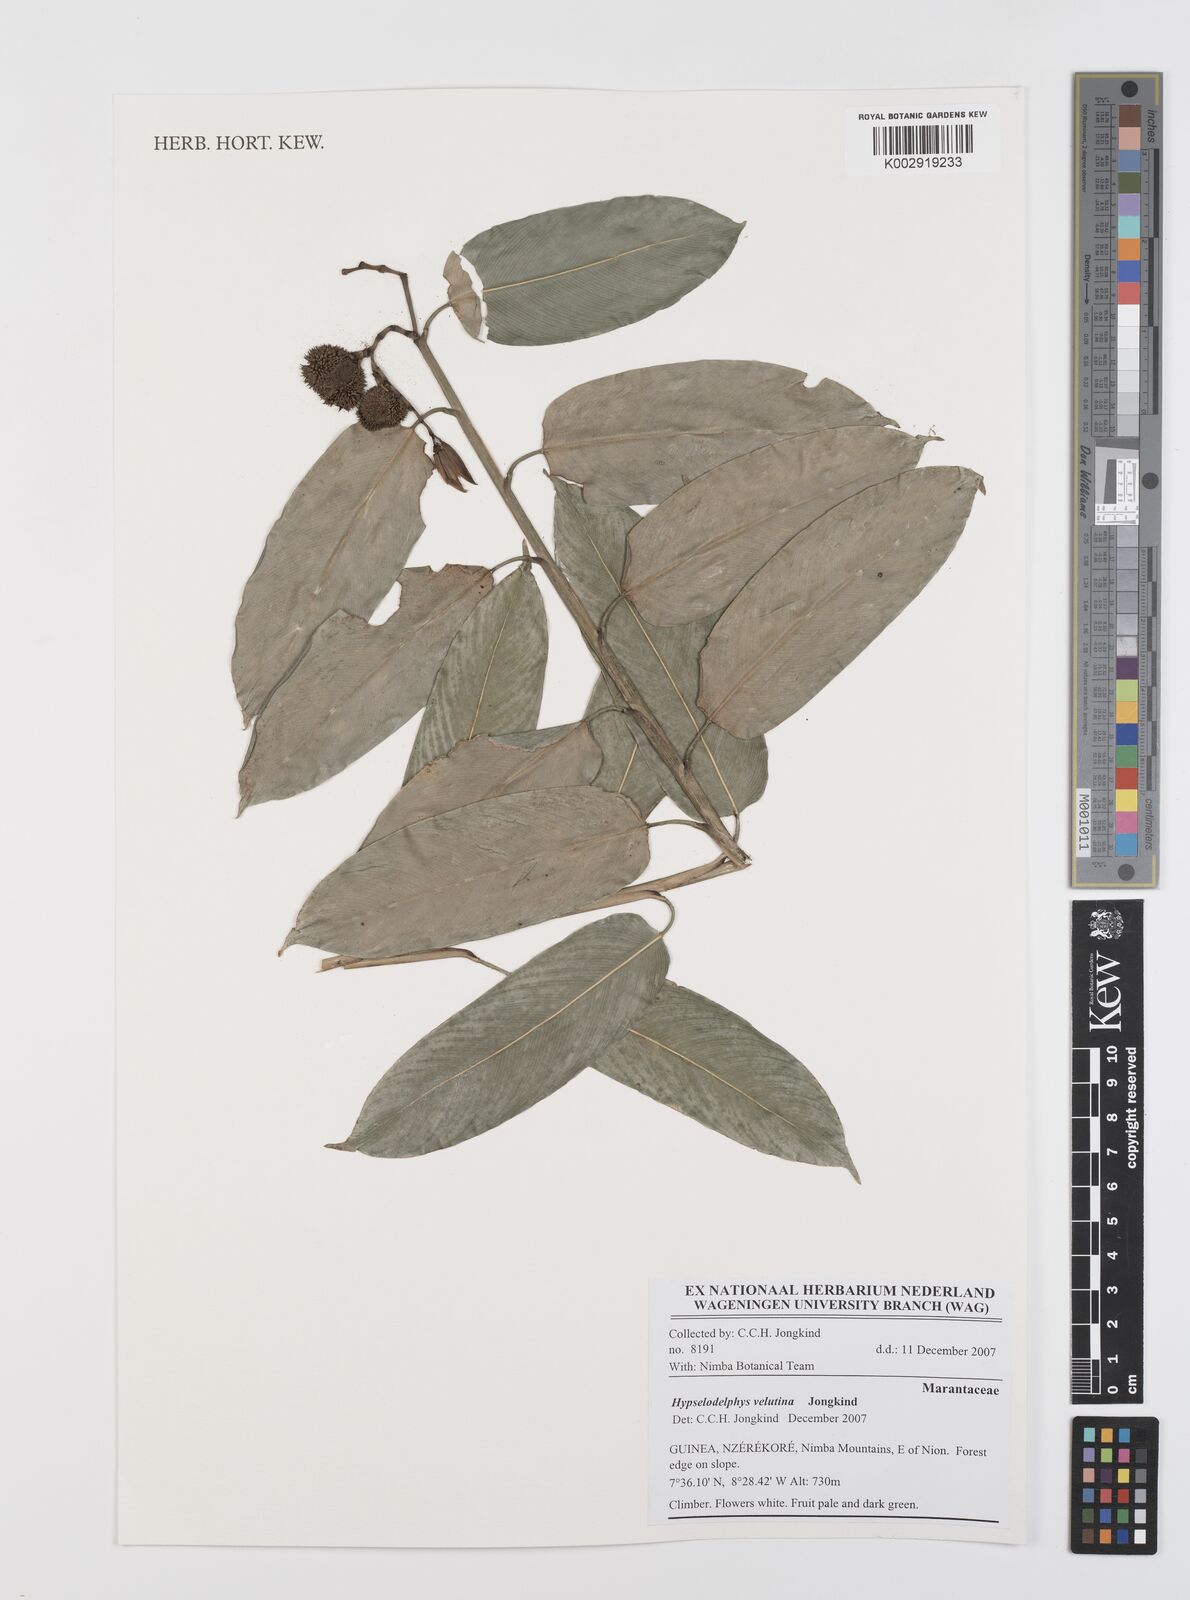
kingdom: Plantae
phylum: Tracheophyta
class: Liliopsida
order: Zingiberales
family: Marantaceae
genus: Hypselodelphys
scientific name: Hypselodelphys velutina
